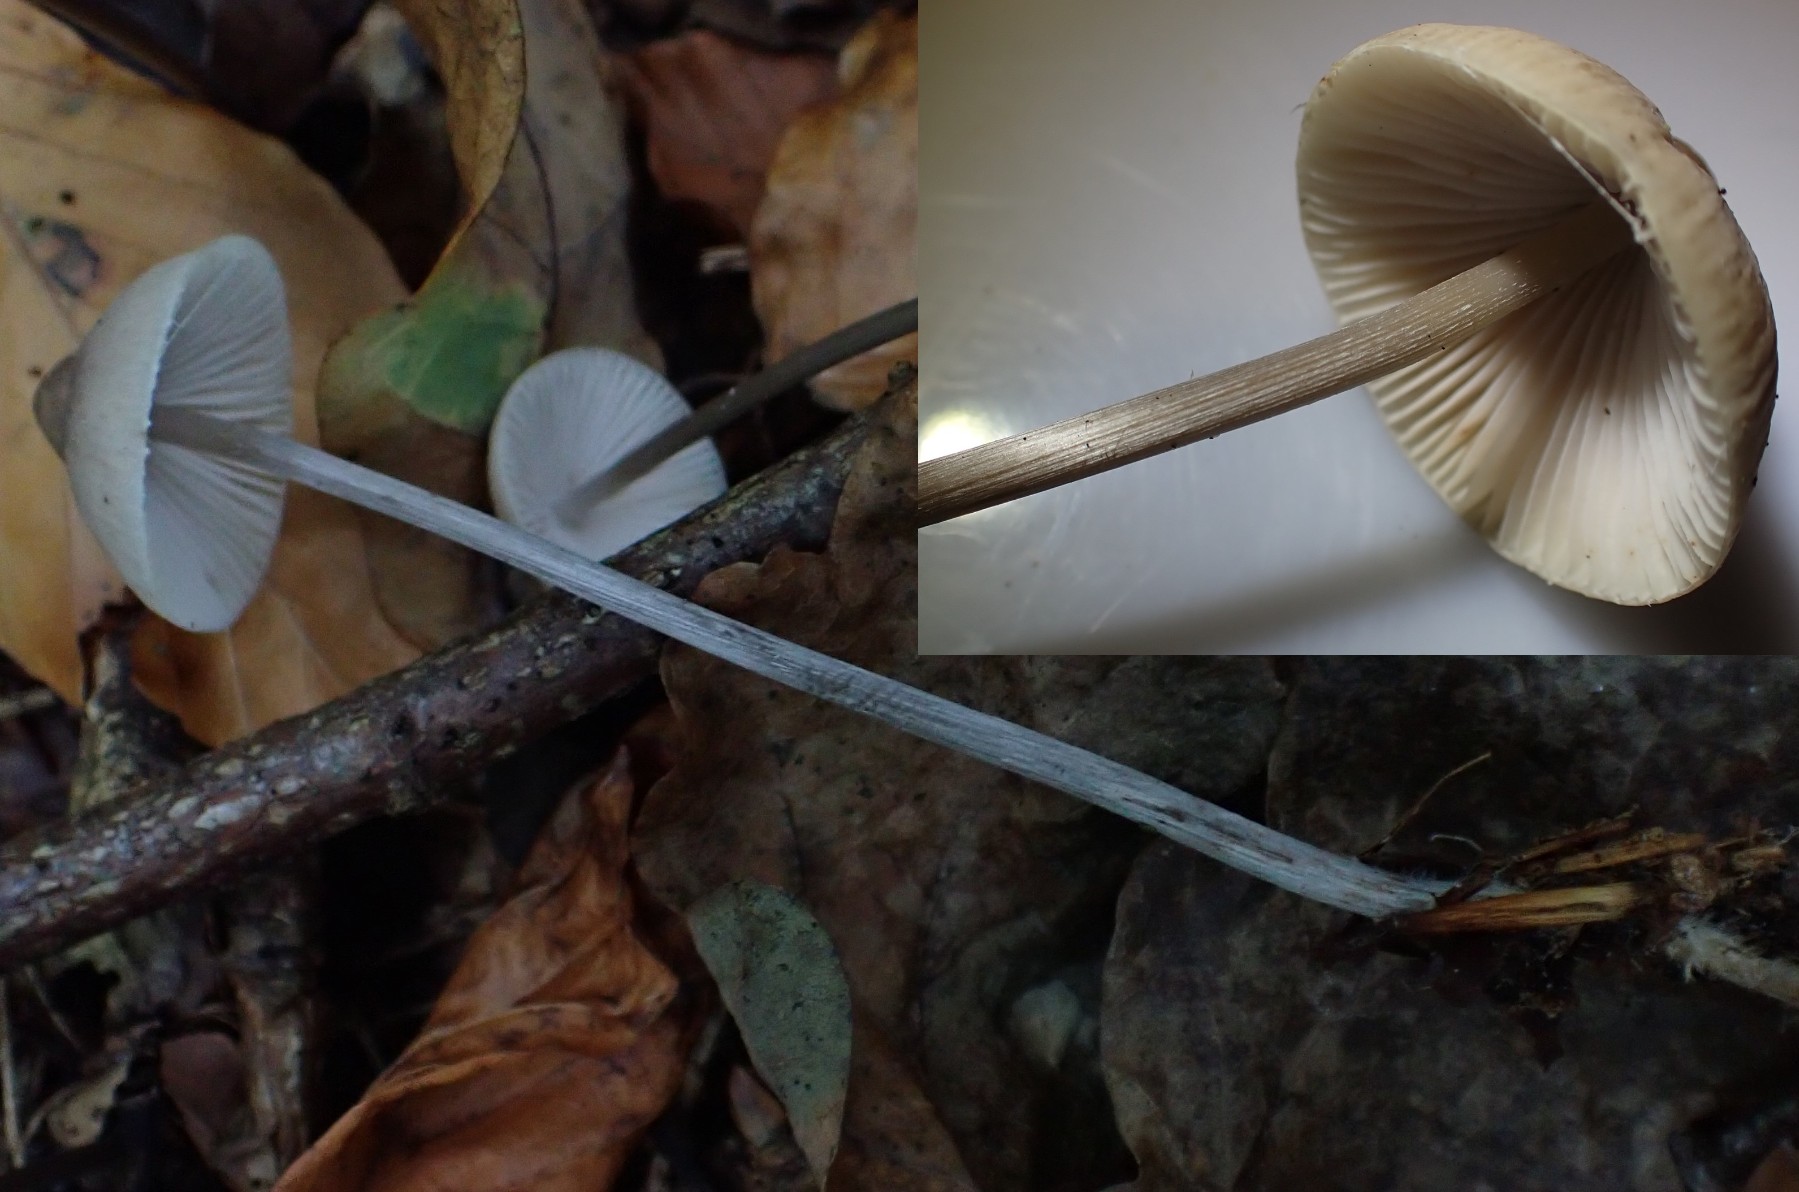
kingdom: Fungi
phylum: Basidiomycota
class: Agaricomycetes
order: Agaricales
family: Mycenaceae
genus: Mycena
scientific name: Mycena polygramma
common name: mangestribet huesvamp
